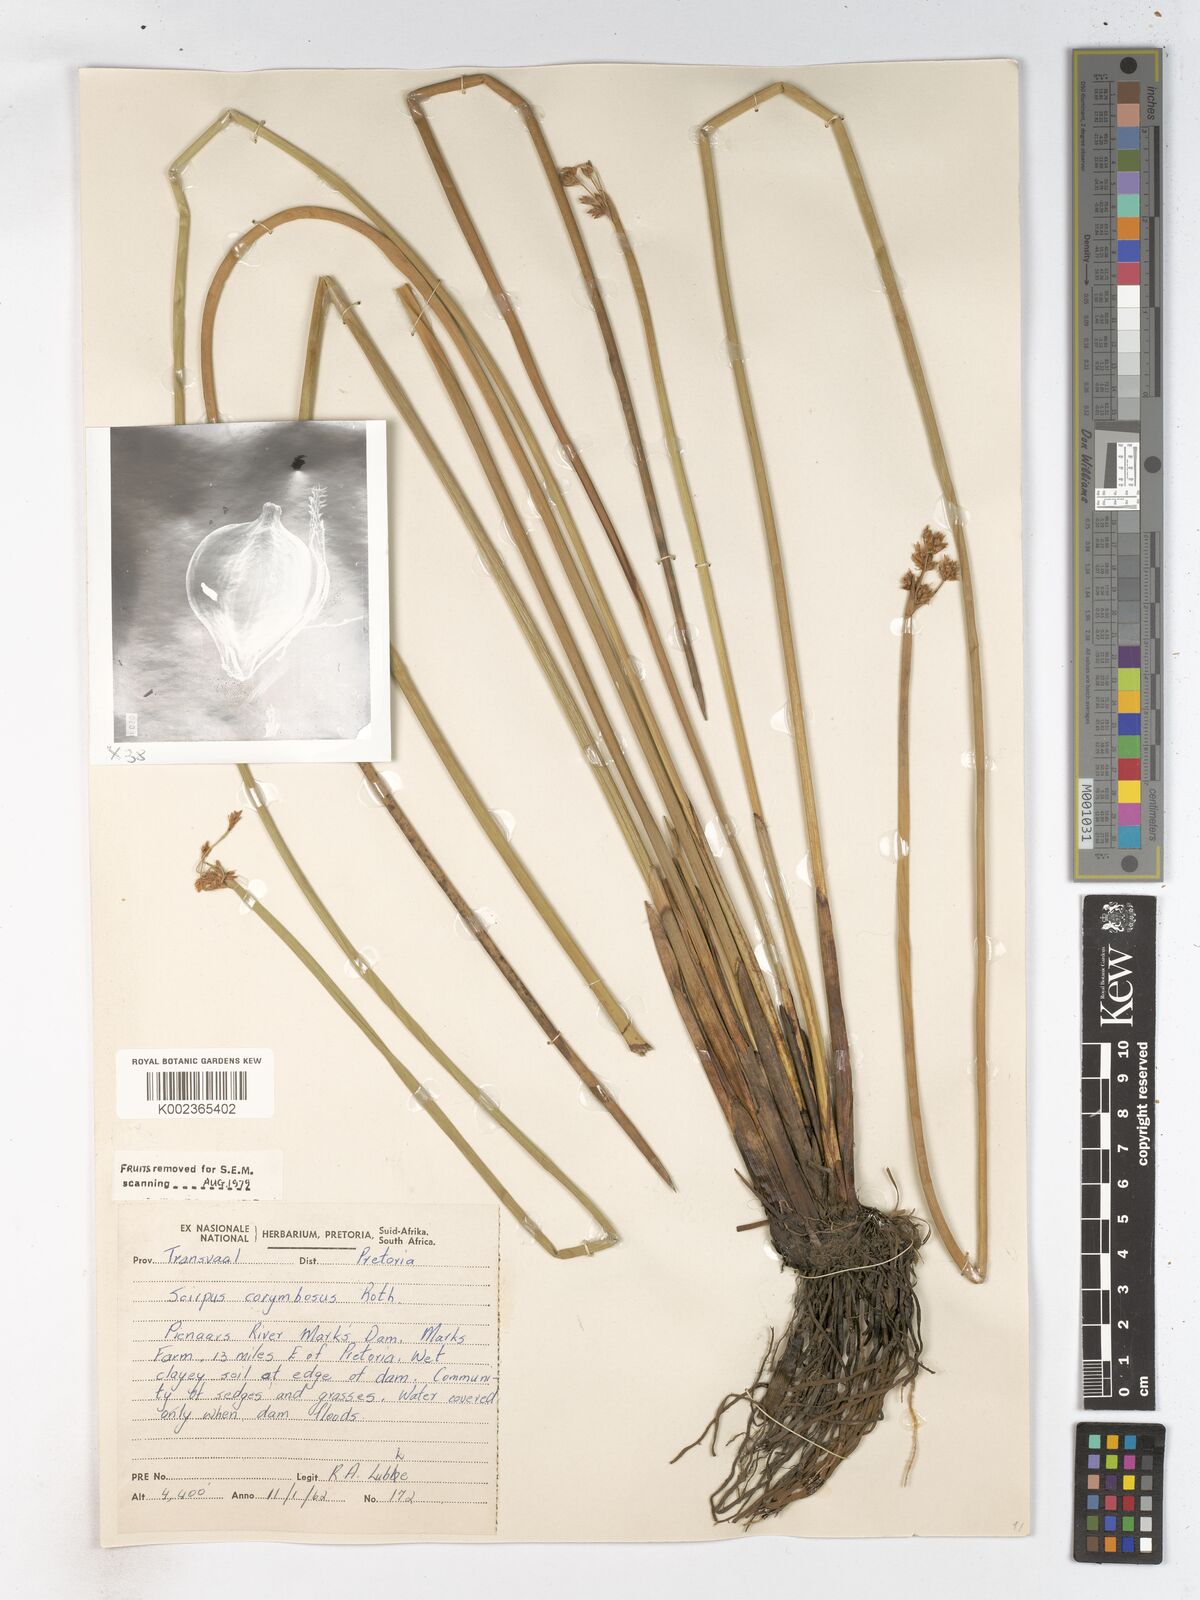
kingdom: Plantae
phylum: Tracheophyta
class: Liliopsida
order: Poales
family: Cyperaceae
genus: Schoenoplectiella
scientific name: Schoenoplectiella brachyceras
